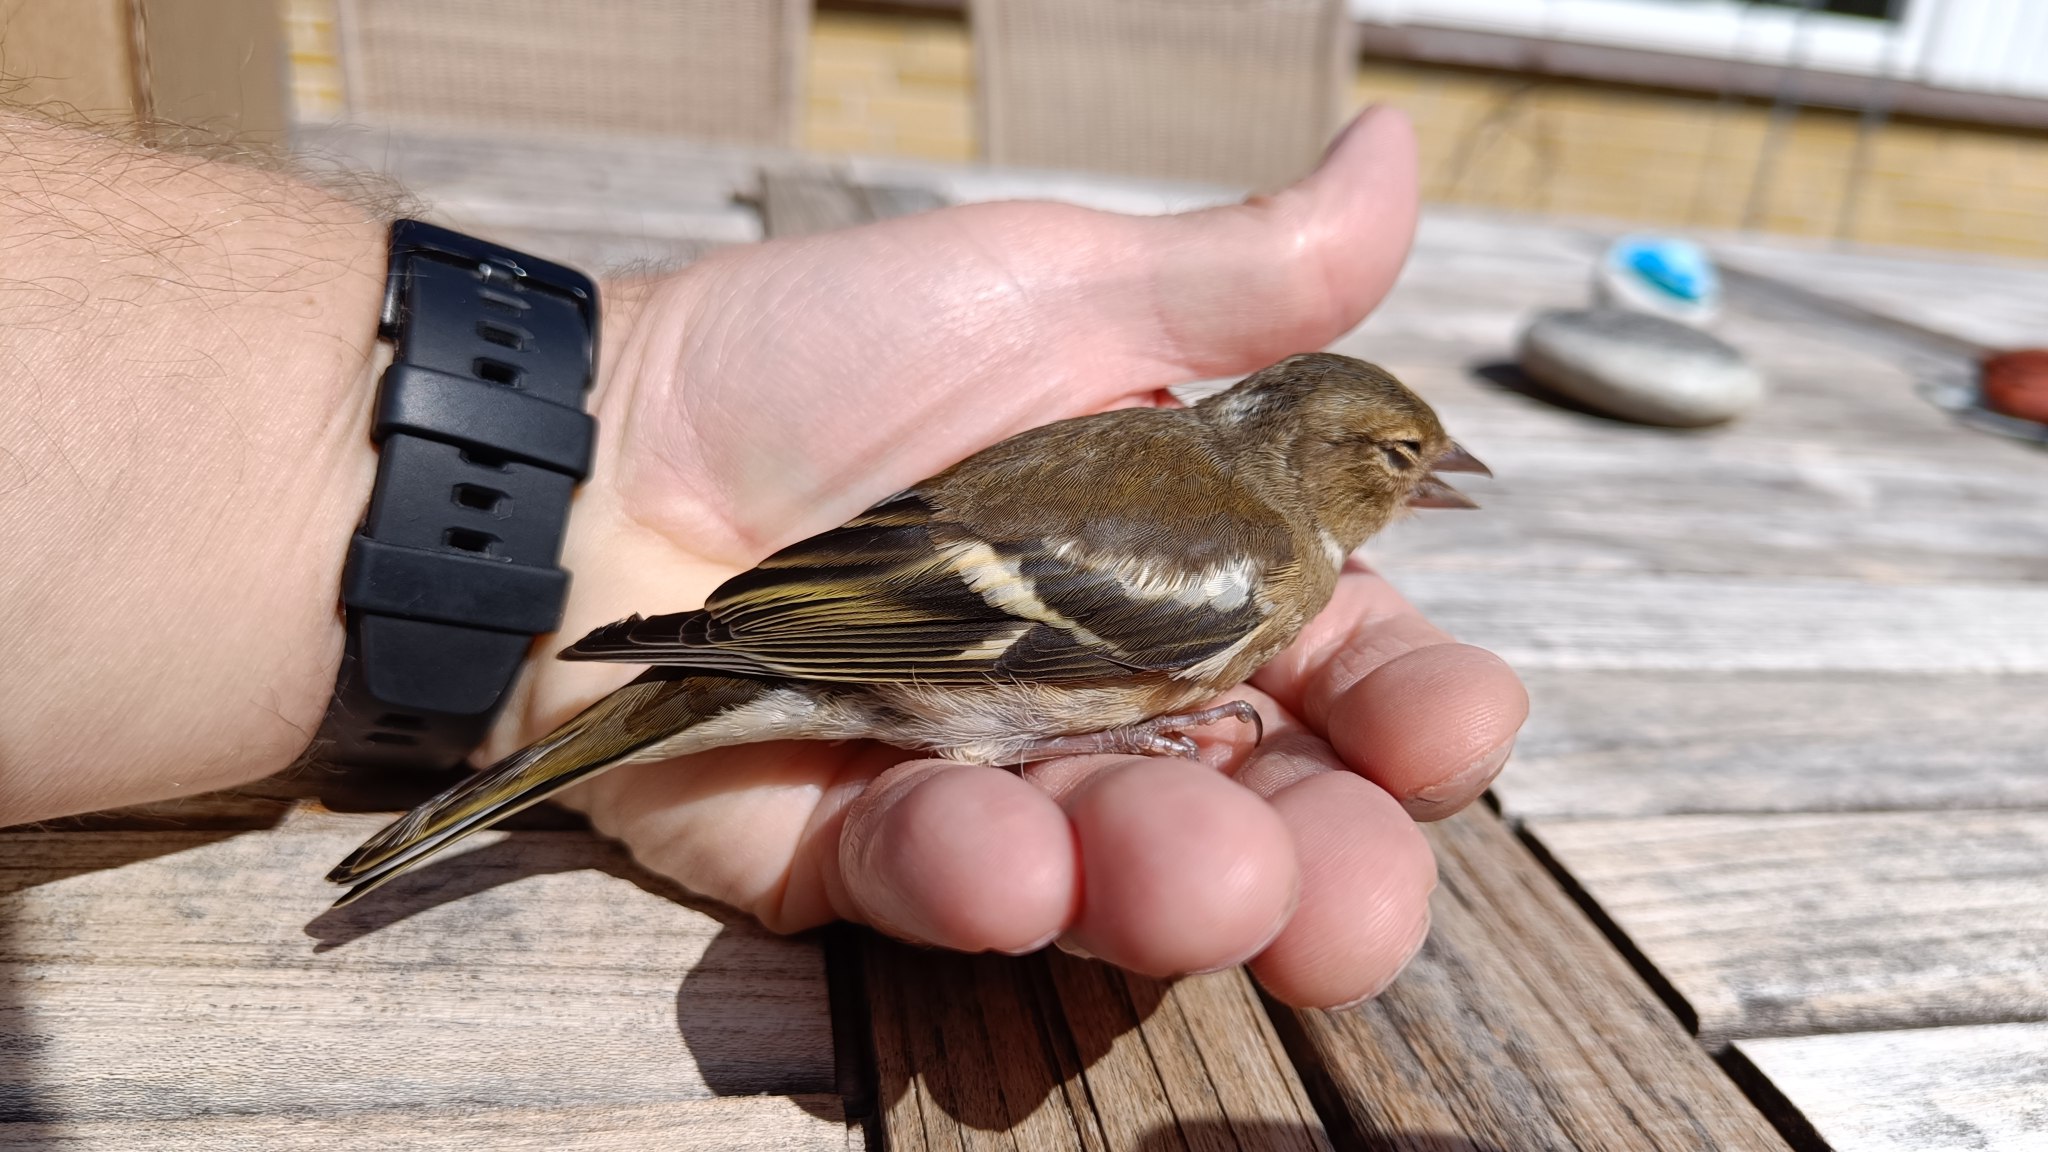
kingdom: Animalia
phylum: Chordata
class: Aves
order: Passeriformes
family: Fringillidae
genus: Fringilla
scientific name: Fringilla coelebs
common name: Bogfinke
